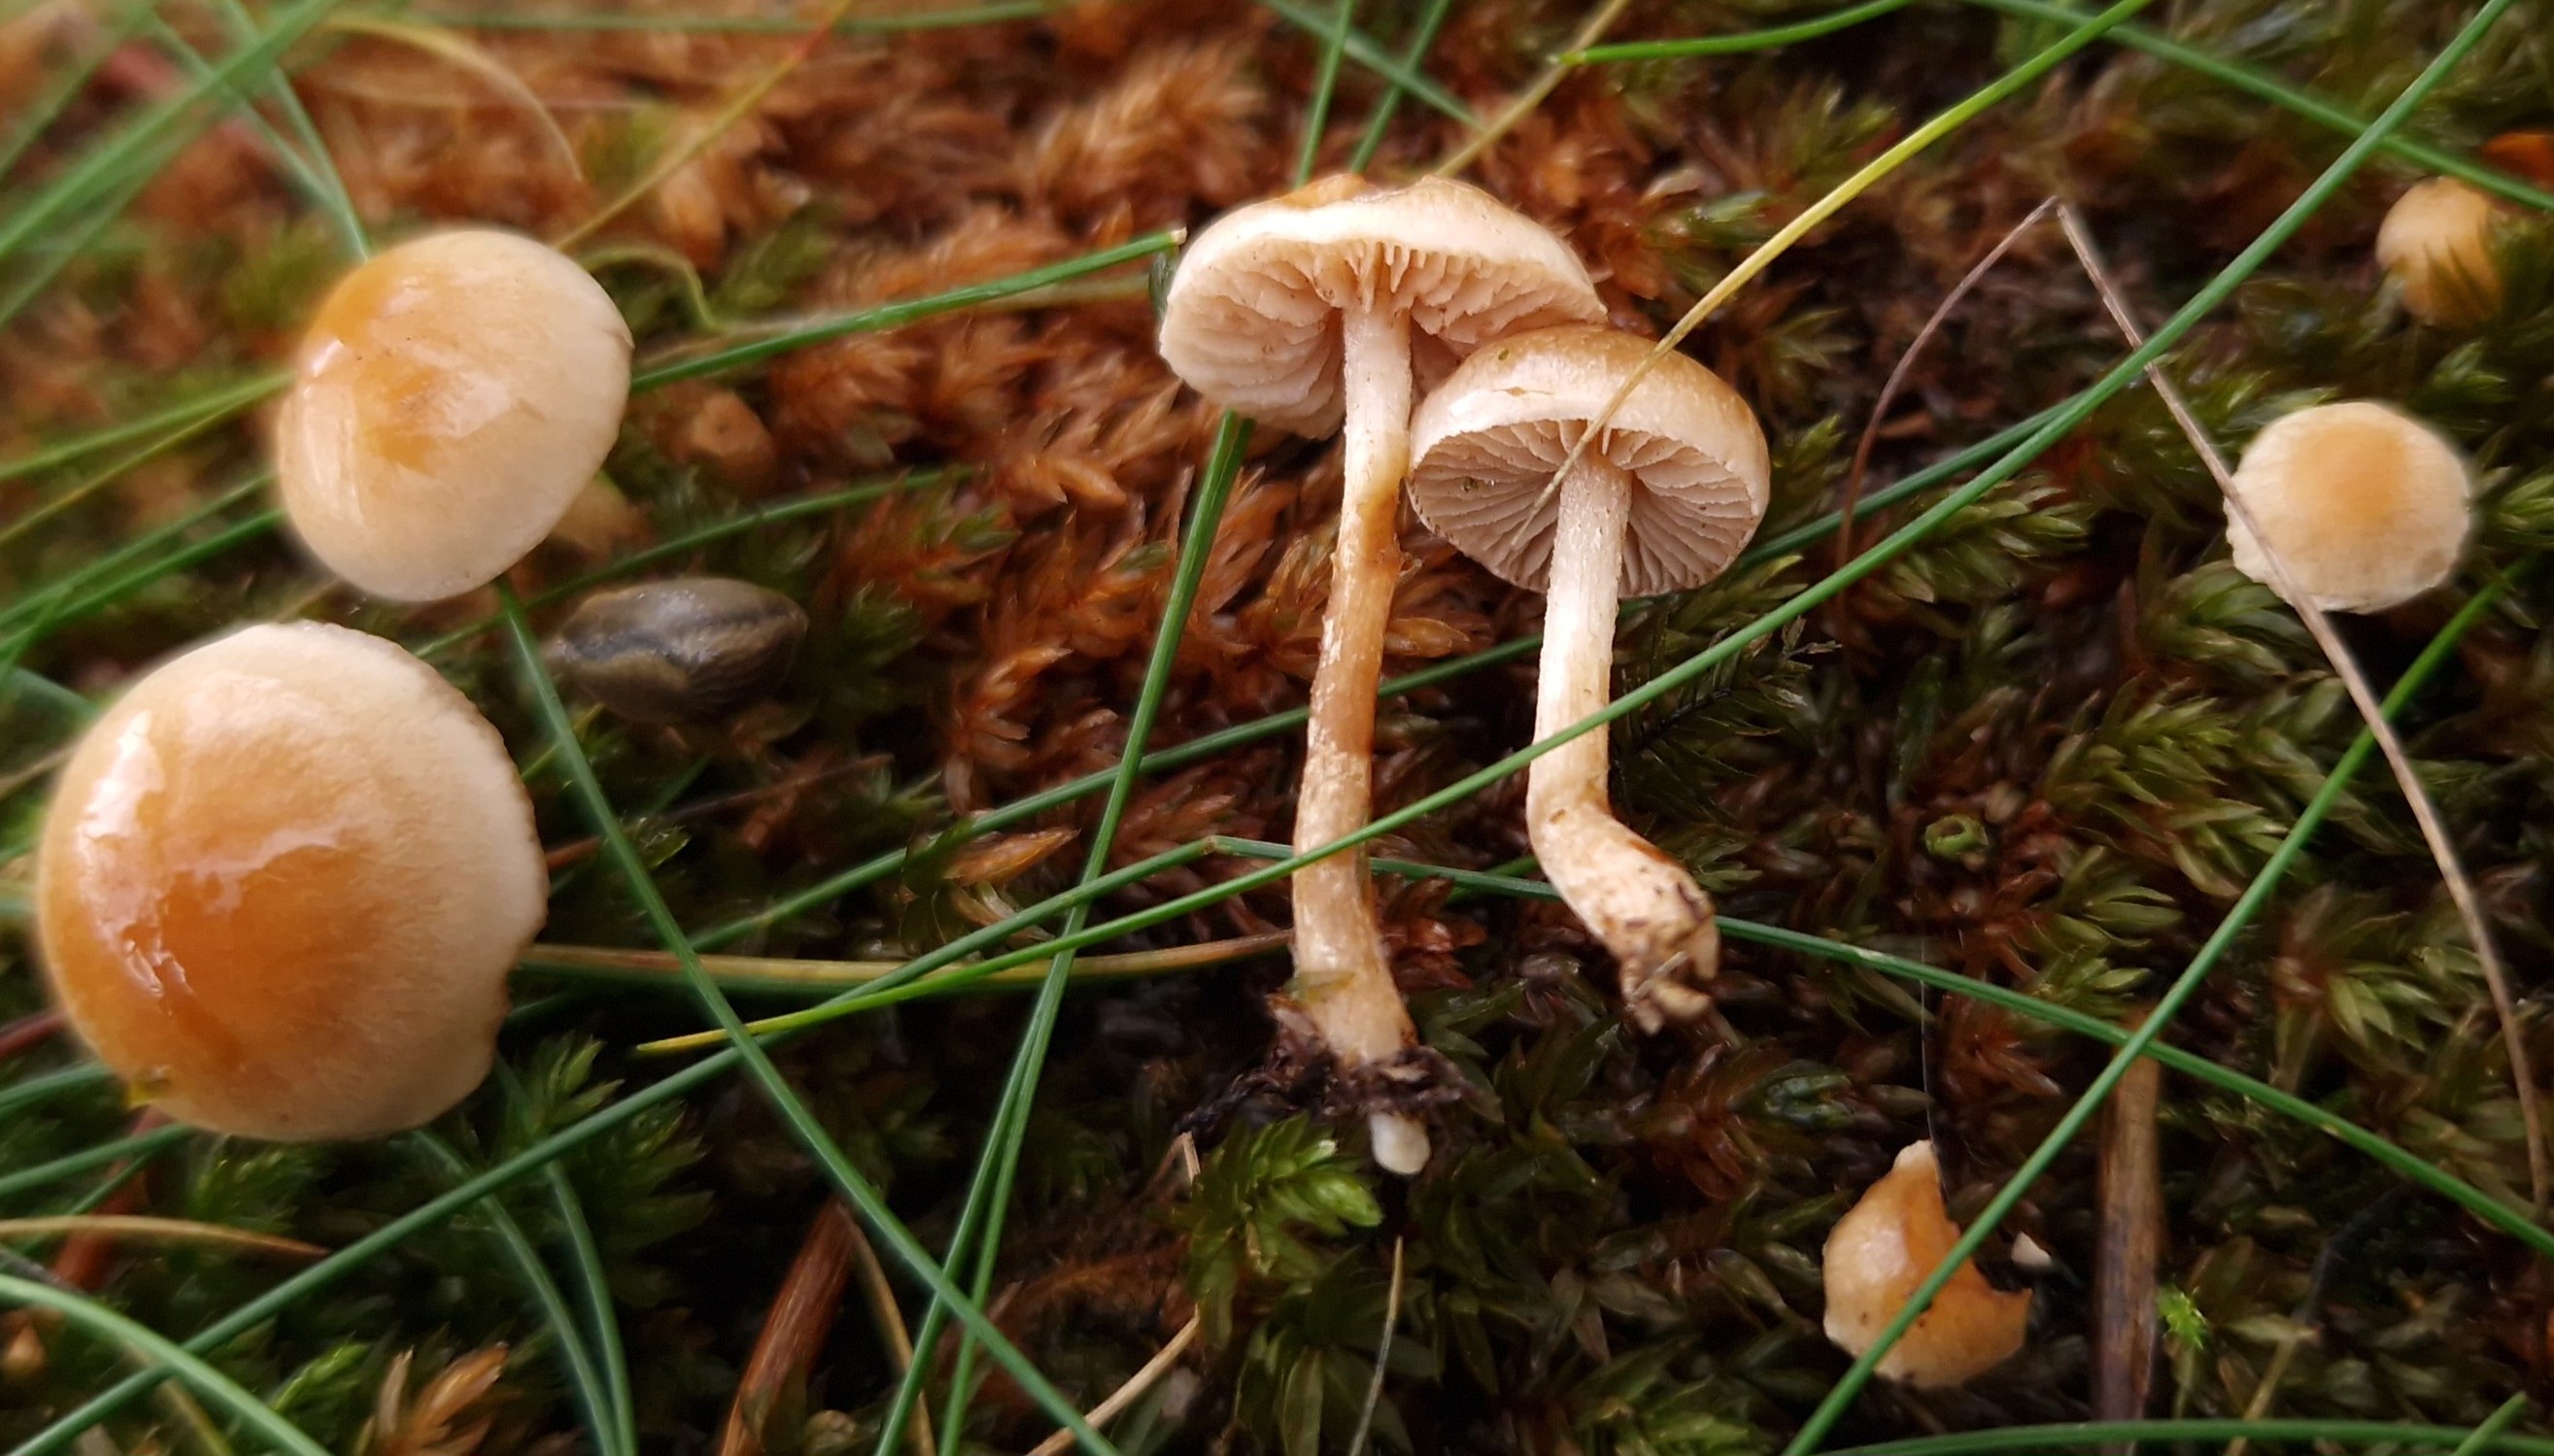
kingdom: Fungi
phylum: Basidiomycota
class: Agaricomycetes
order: Agaricales
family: Hymenogastraceae
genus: Hebeloma
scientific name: Hebeloma
